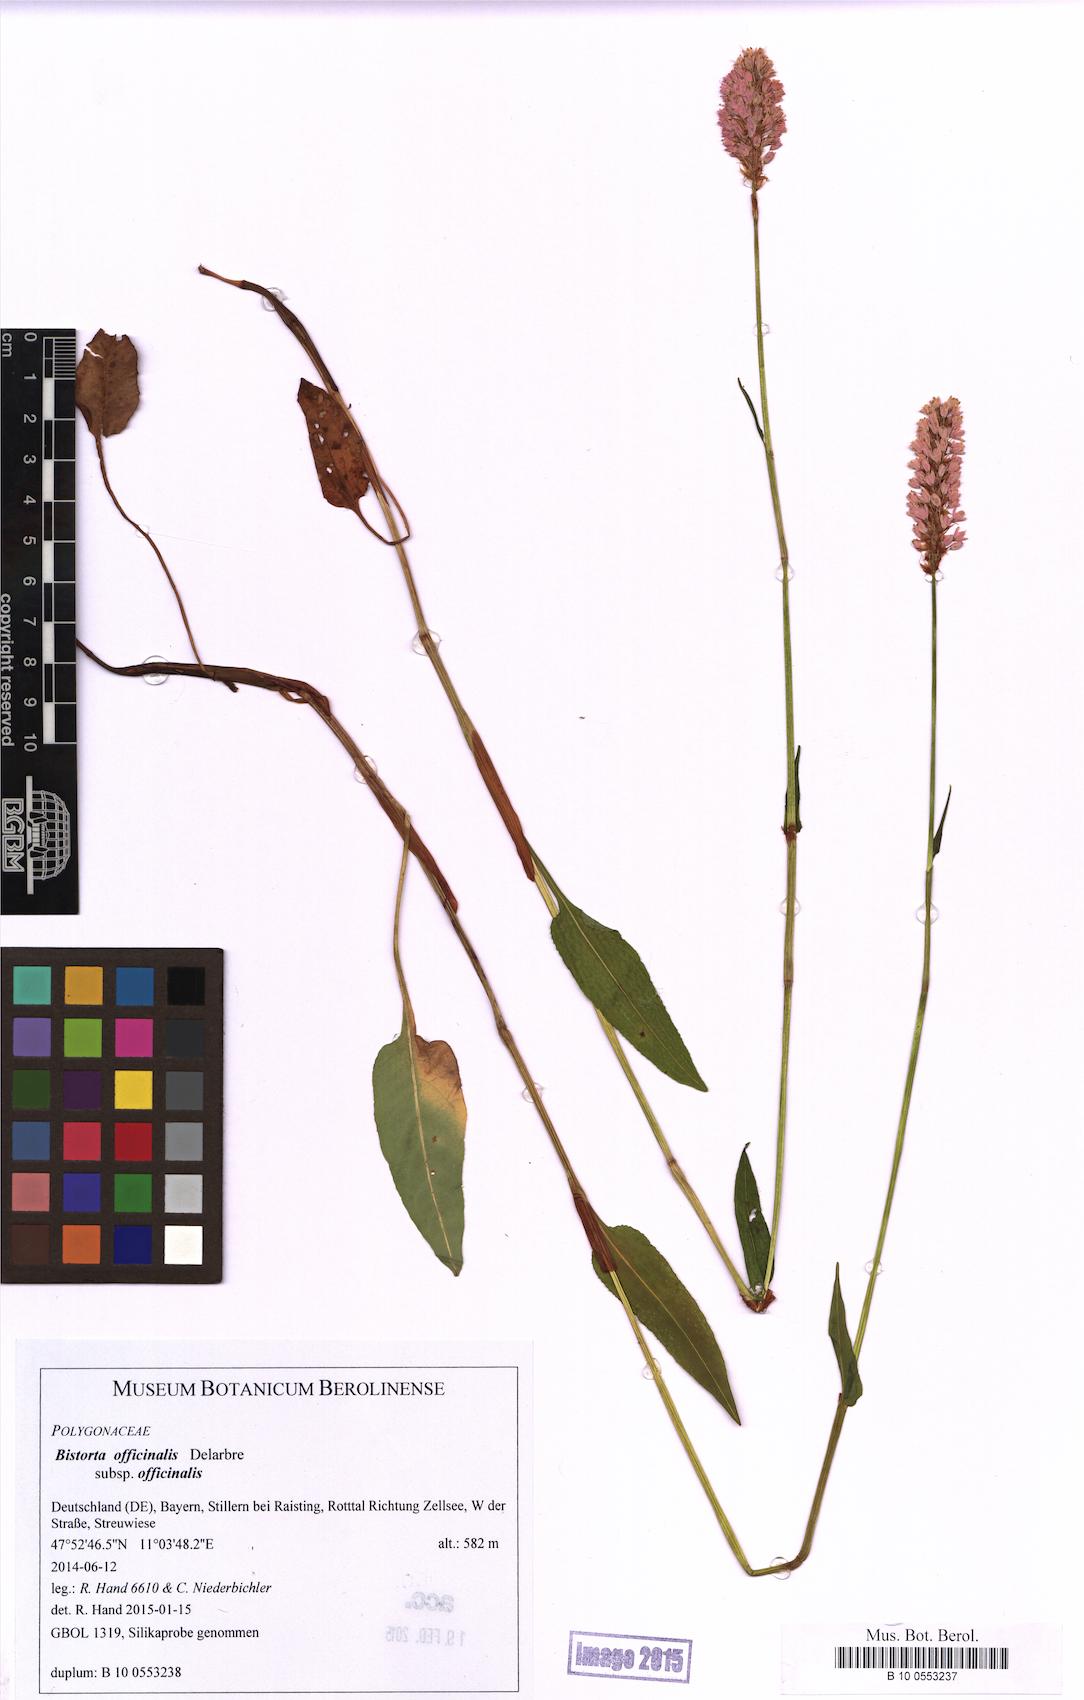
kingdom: Plantae
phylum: Tracheophyta
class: Magnoliopsida
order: Caryophyllales
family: Polygonaceae
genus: Bistorta
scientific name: Bistorta officinalis
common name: Common bistort
